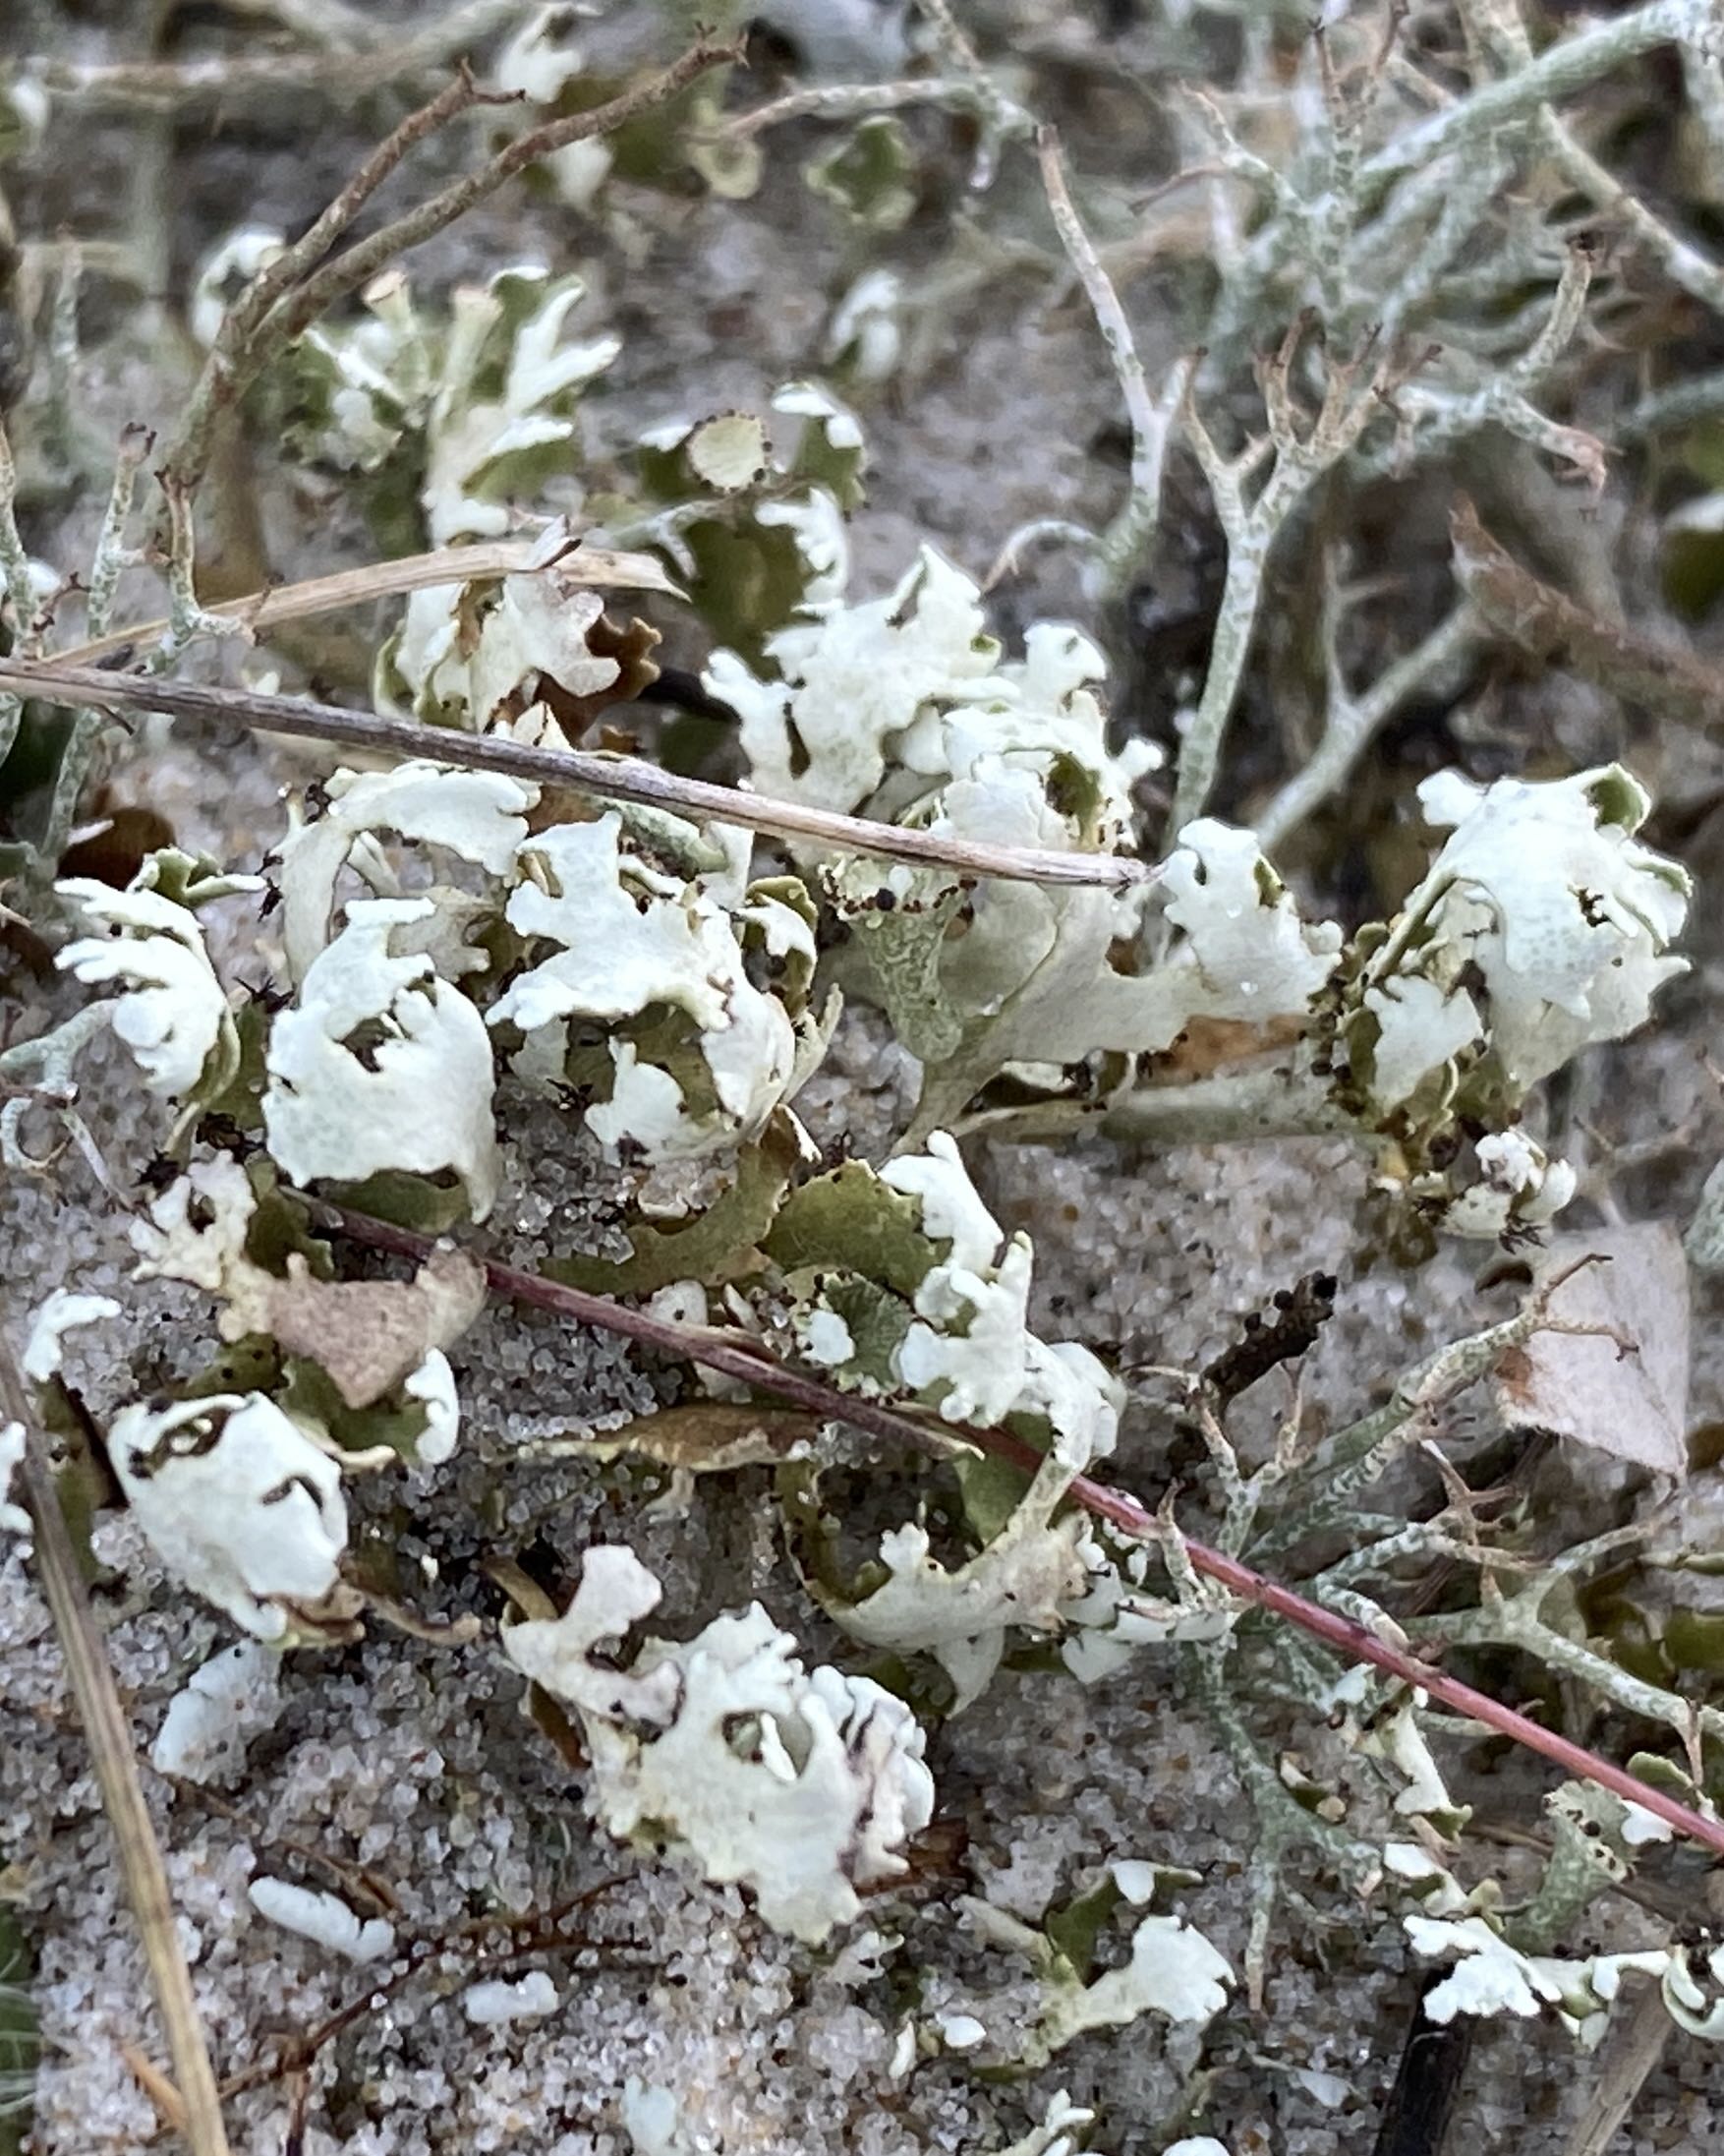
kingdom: Fungi
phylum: Ascomycota
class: Lecanoromycetes
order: Lecanorales
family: Cladoniaceae
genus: Cladonia
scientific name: Cladonia foliacea
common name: fliget bægerlav
